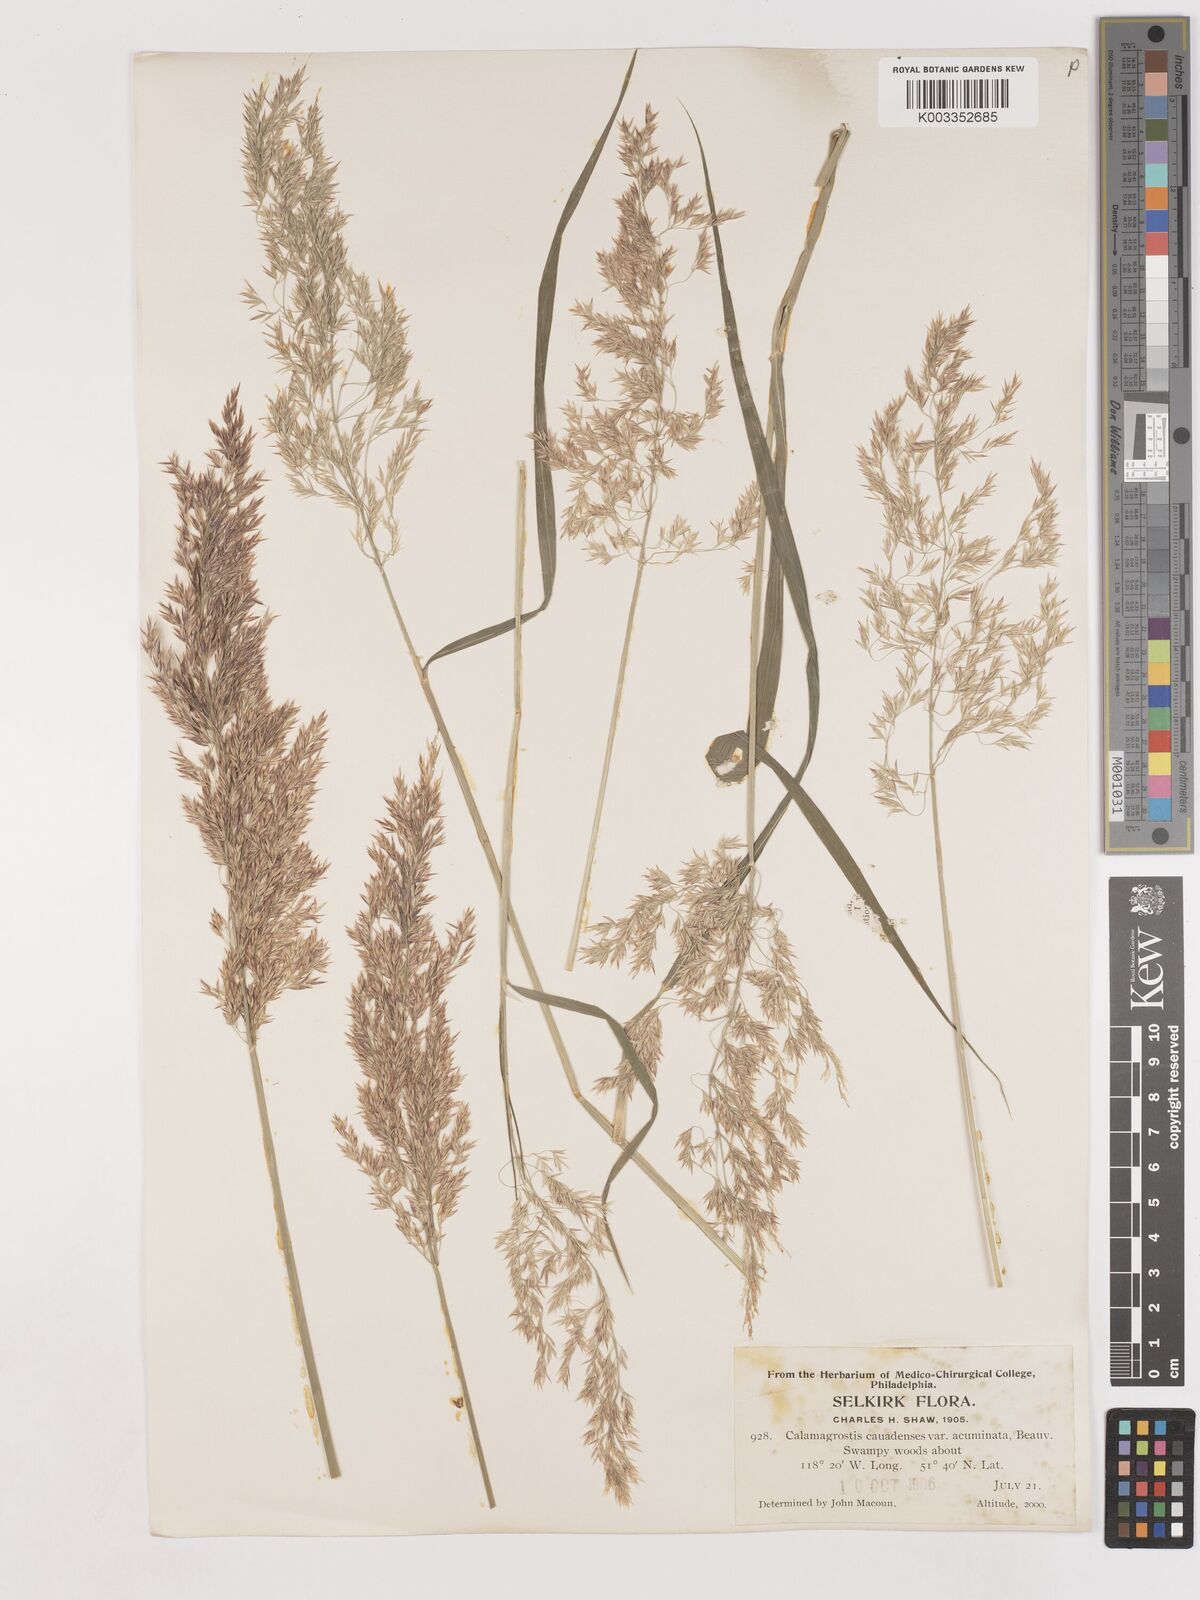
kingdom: Plantae
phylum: Tracheophyta
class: Liliopsida
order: Poales
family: Poaceae
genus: Calamagrostis
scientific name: Calamagrostis canadensis
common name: Canada bluejoint
